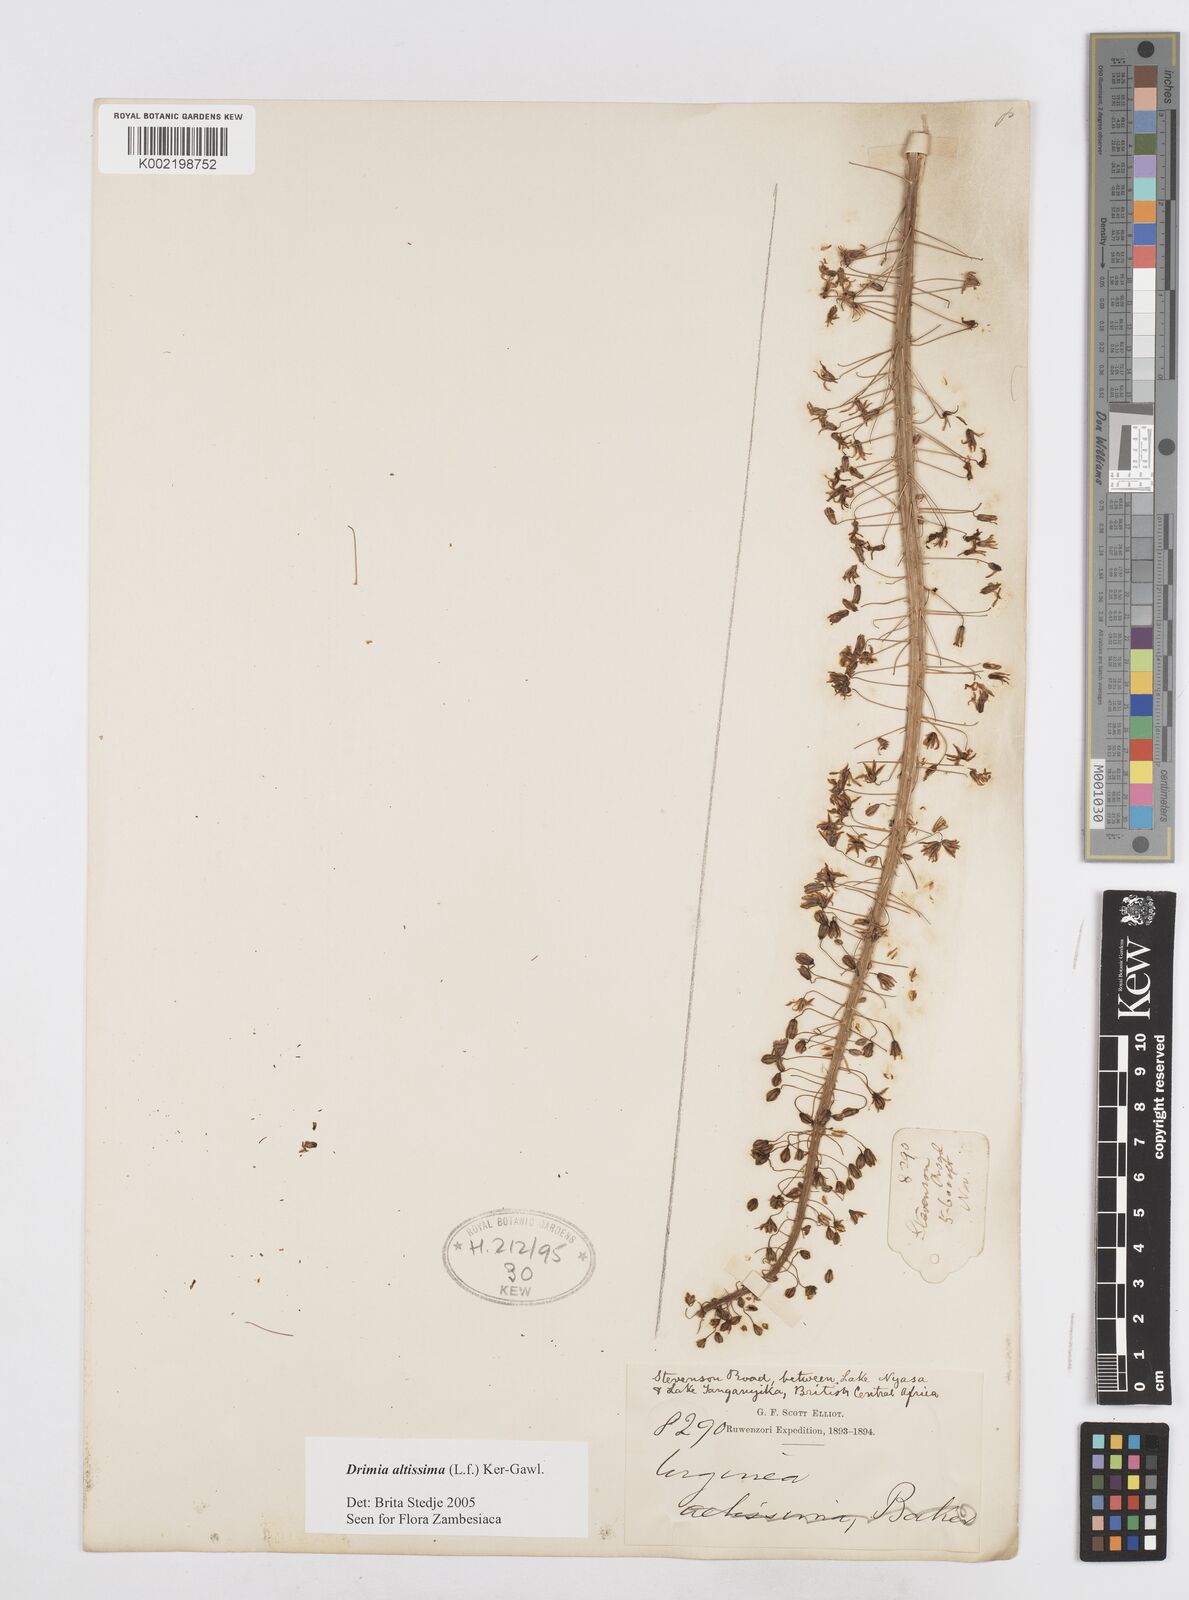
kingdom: Plantae
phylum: Tracheophyta
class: Liliopsida
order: Asparagales
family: Asparagaceae
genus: Drimia
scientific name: Drimia altissima
